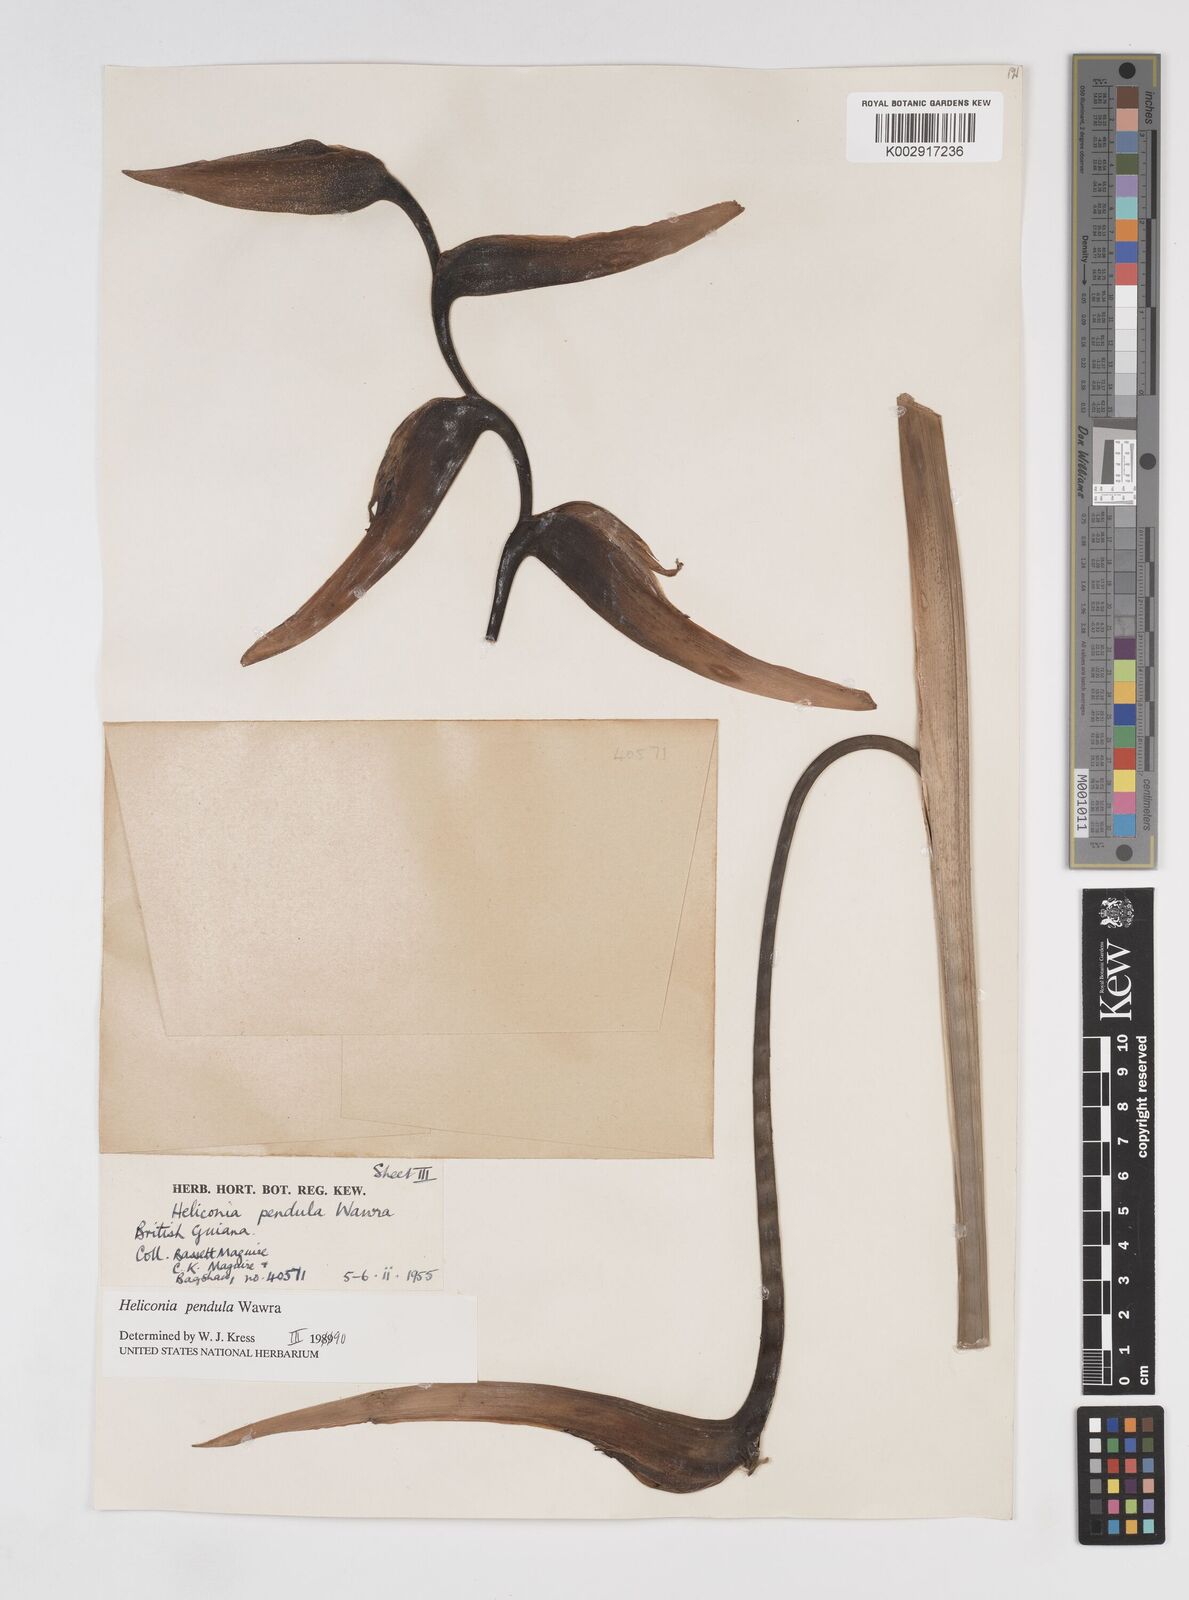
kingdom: Plantae
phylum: Tracheophyta
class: Liliopsida
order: Zingiberales
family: Heliconiaceae
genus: Heliconia
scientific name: Heliconia pendula
